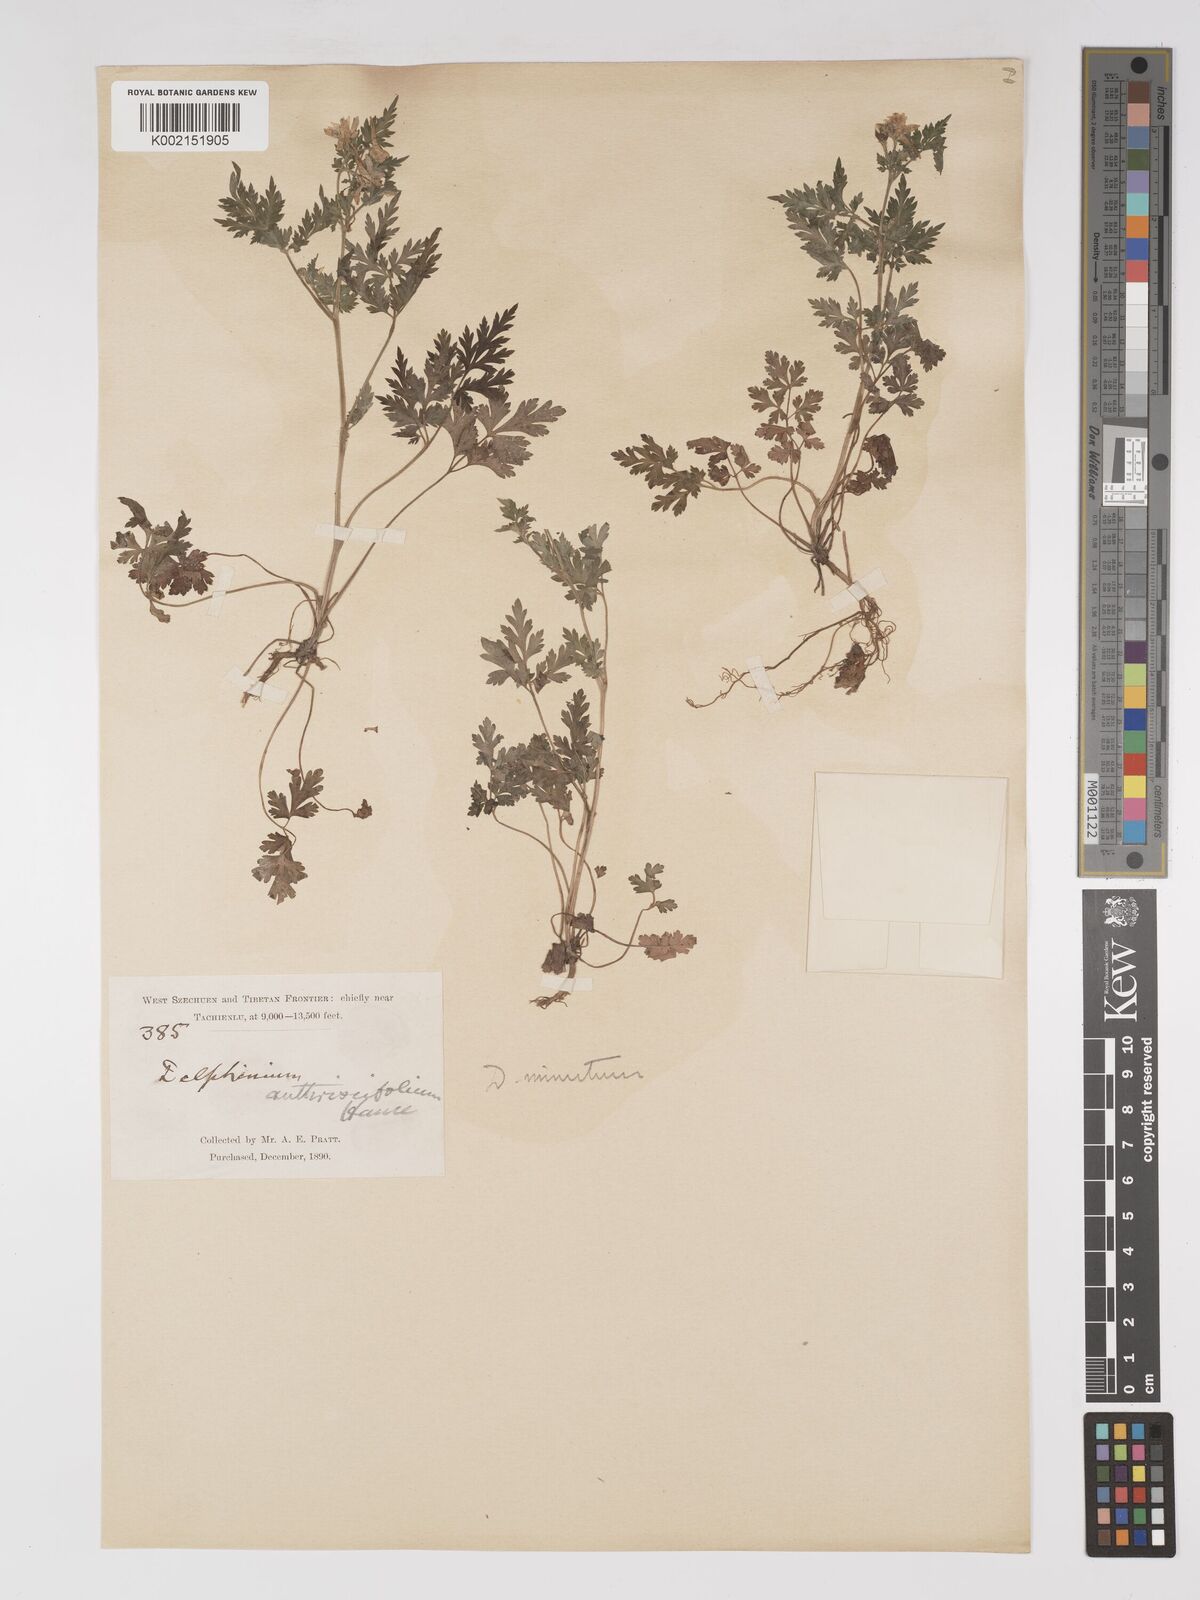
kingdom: Plantae
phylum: Tracheophyta
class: Magnoliopsida
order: Ranunculales
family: Ranunculaceae
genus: Delphinium
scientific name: Delphinium anthriscifolium
